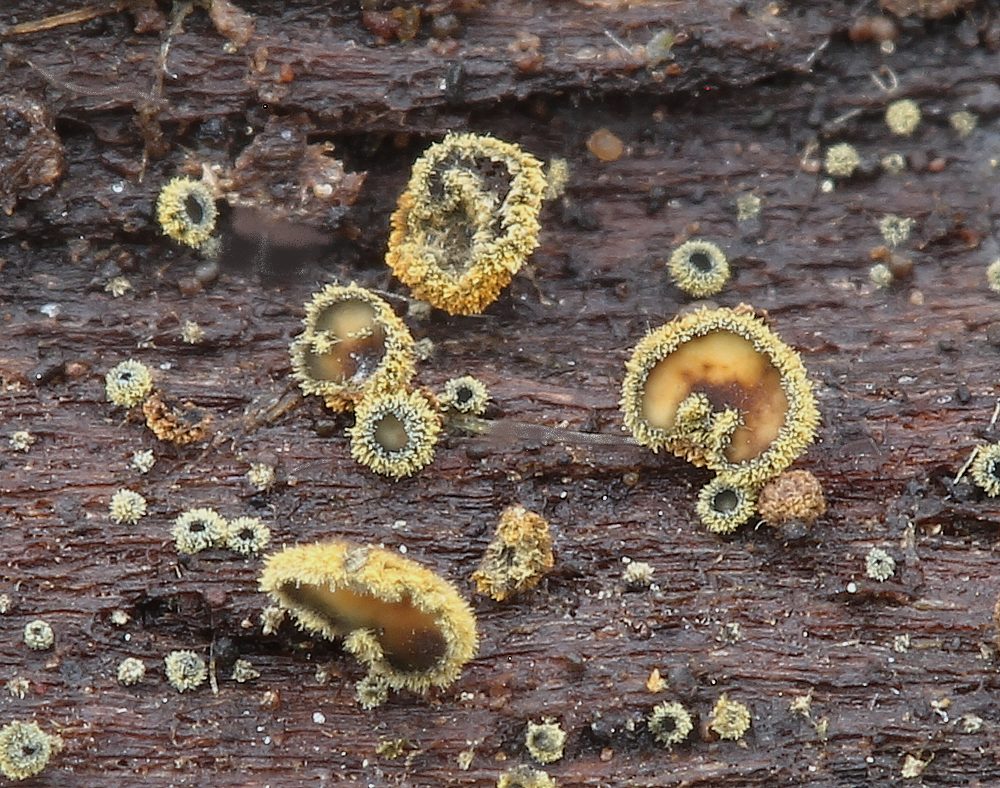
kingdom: Fungi
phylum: Ascomycota
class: Leotiomycetes
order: Helotiales
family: Lachnaceae
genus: Neodasyscypha
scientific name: Neodasyscypha cerina
